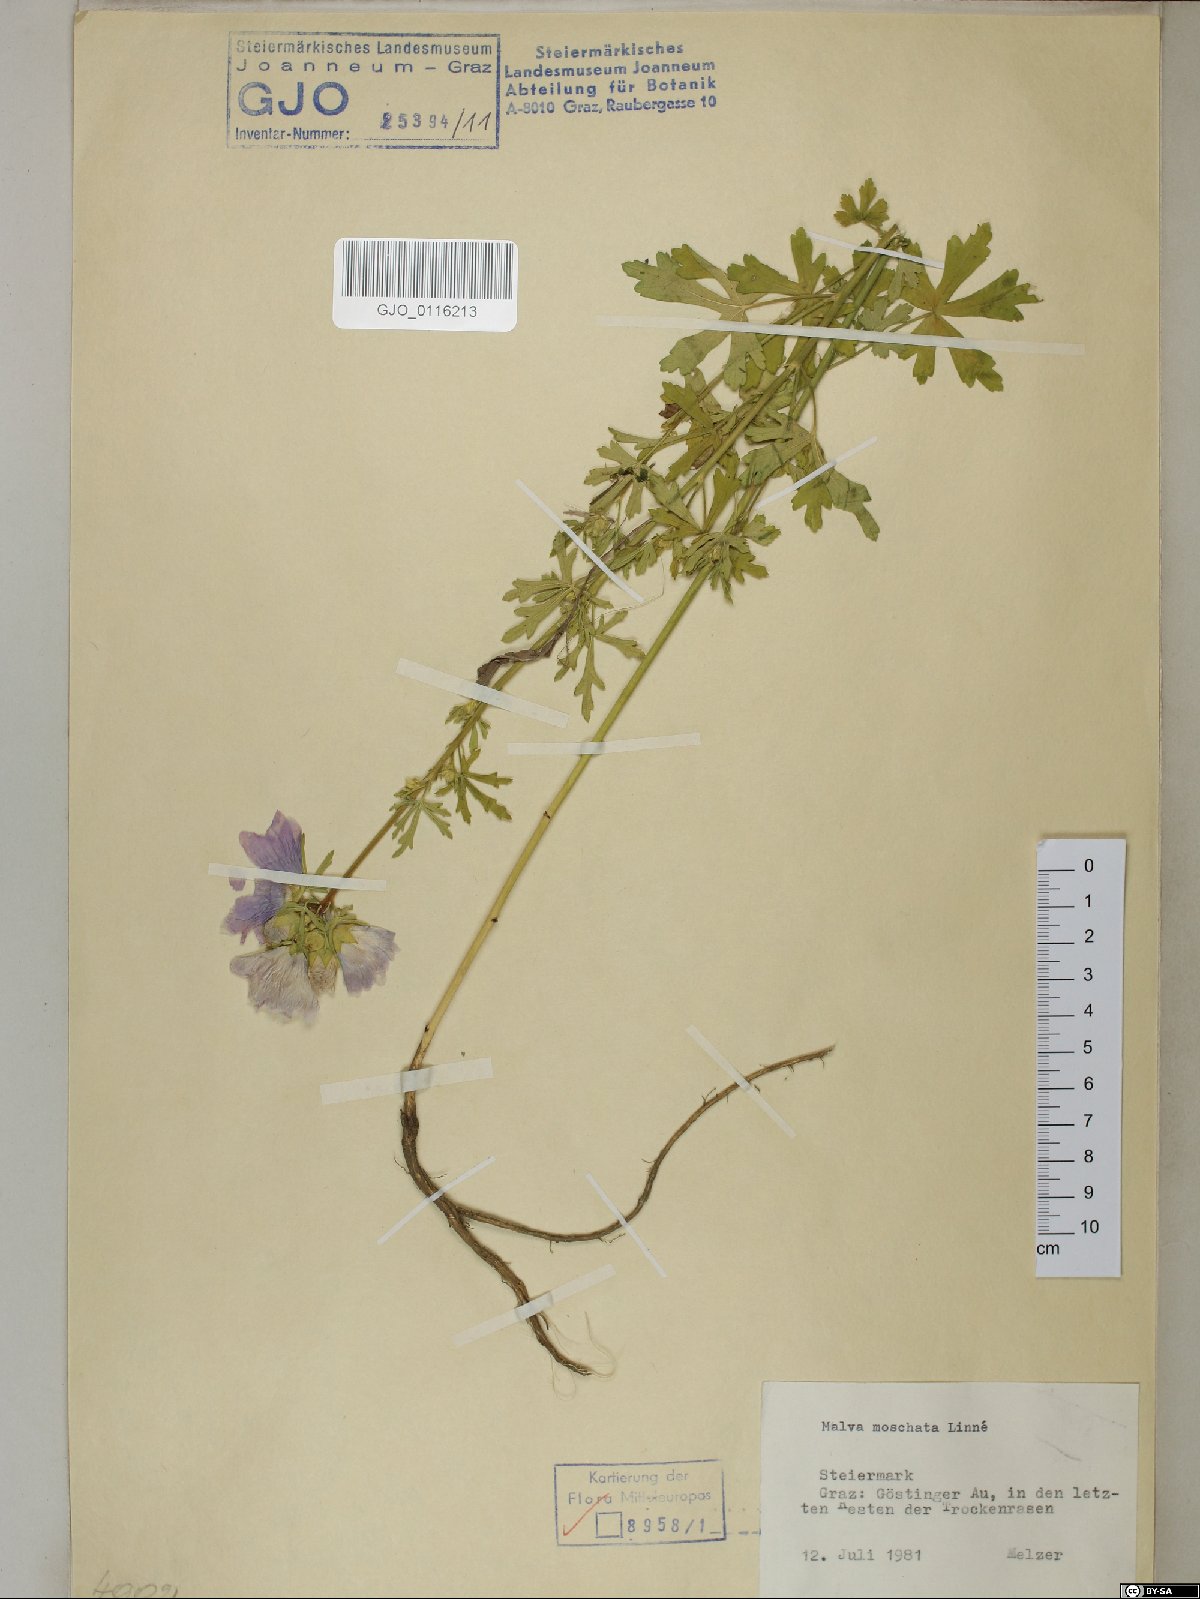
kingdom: Plantae
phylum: Tracheophyta
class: Magnoliopsida
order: Malvales
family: Malvaceae
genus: Malva
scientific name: Malva moschata
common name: Musk mallow
